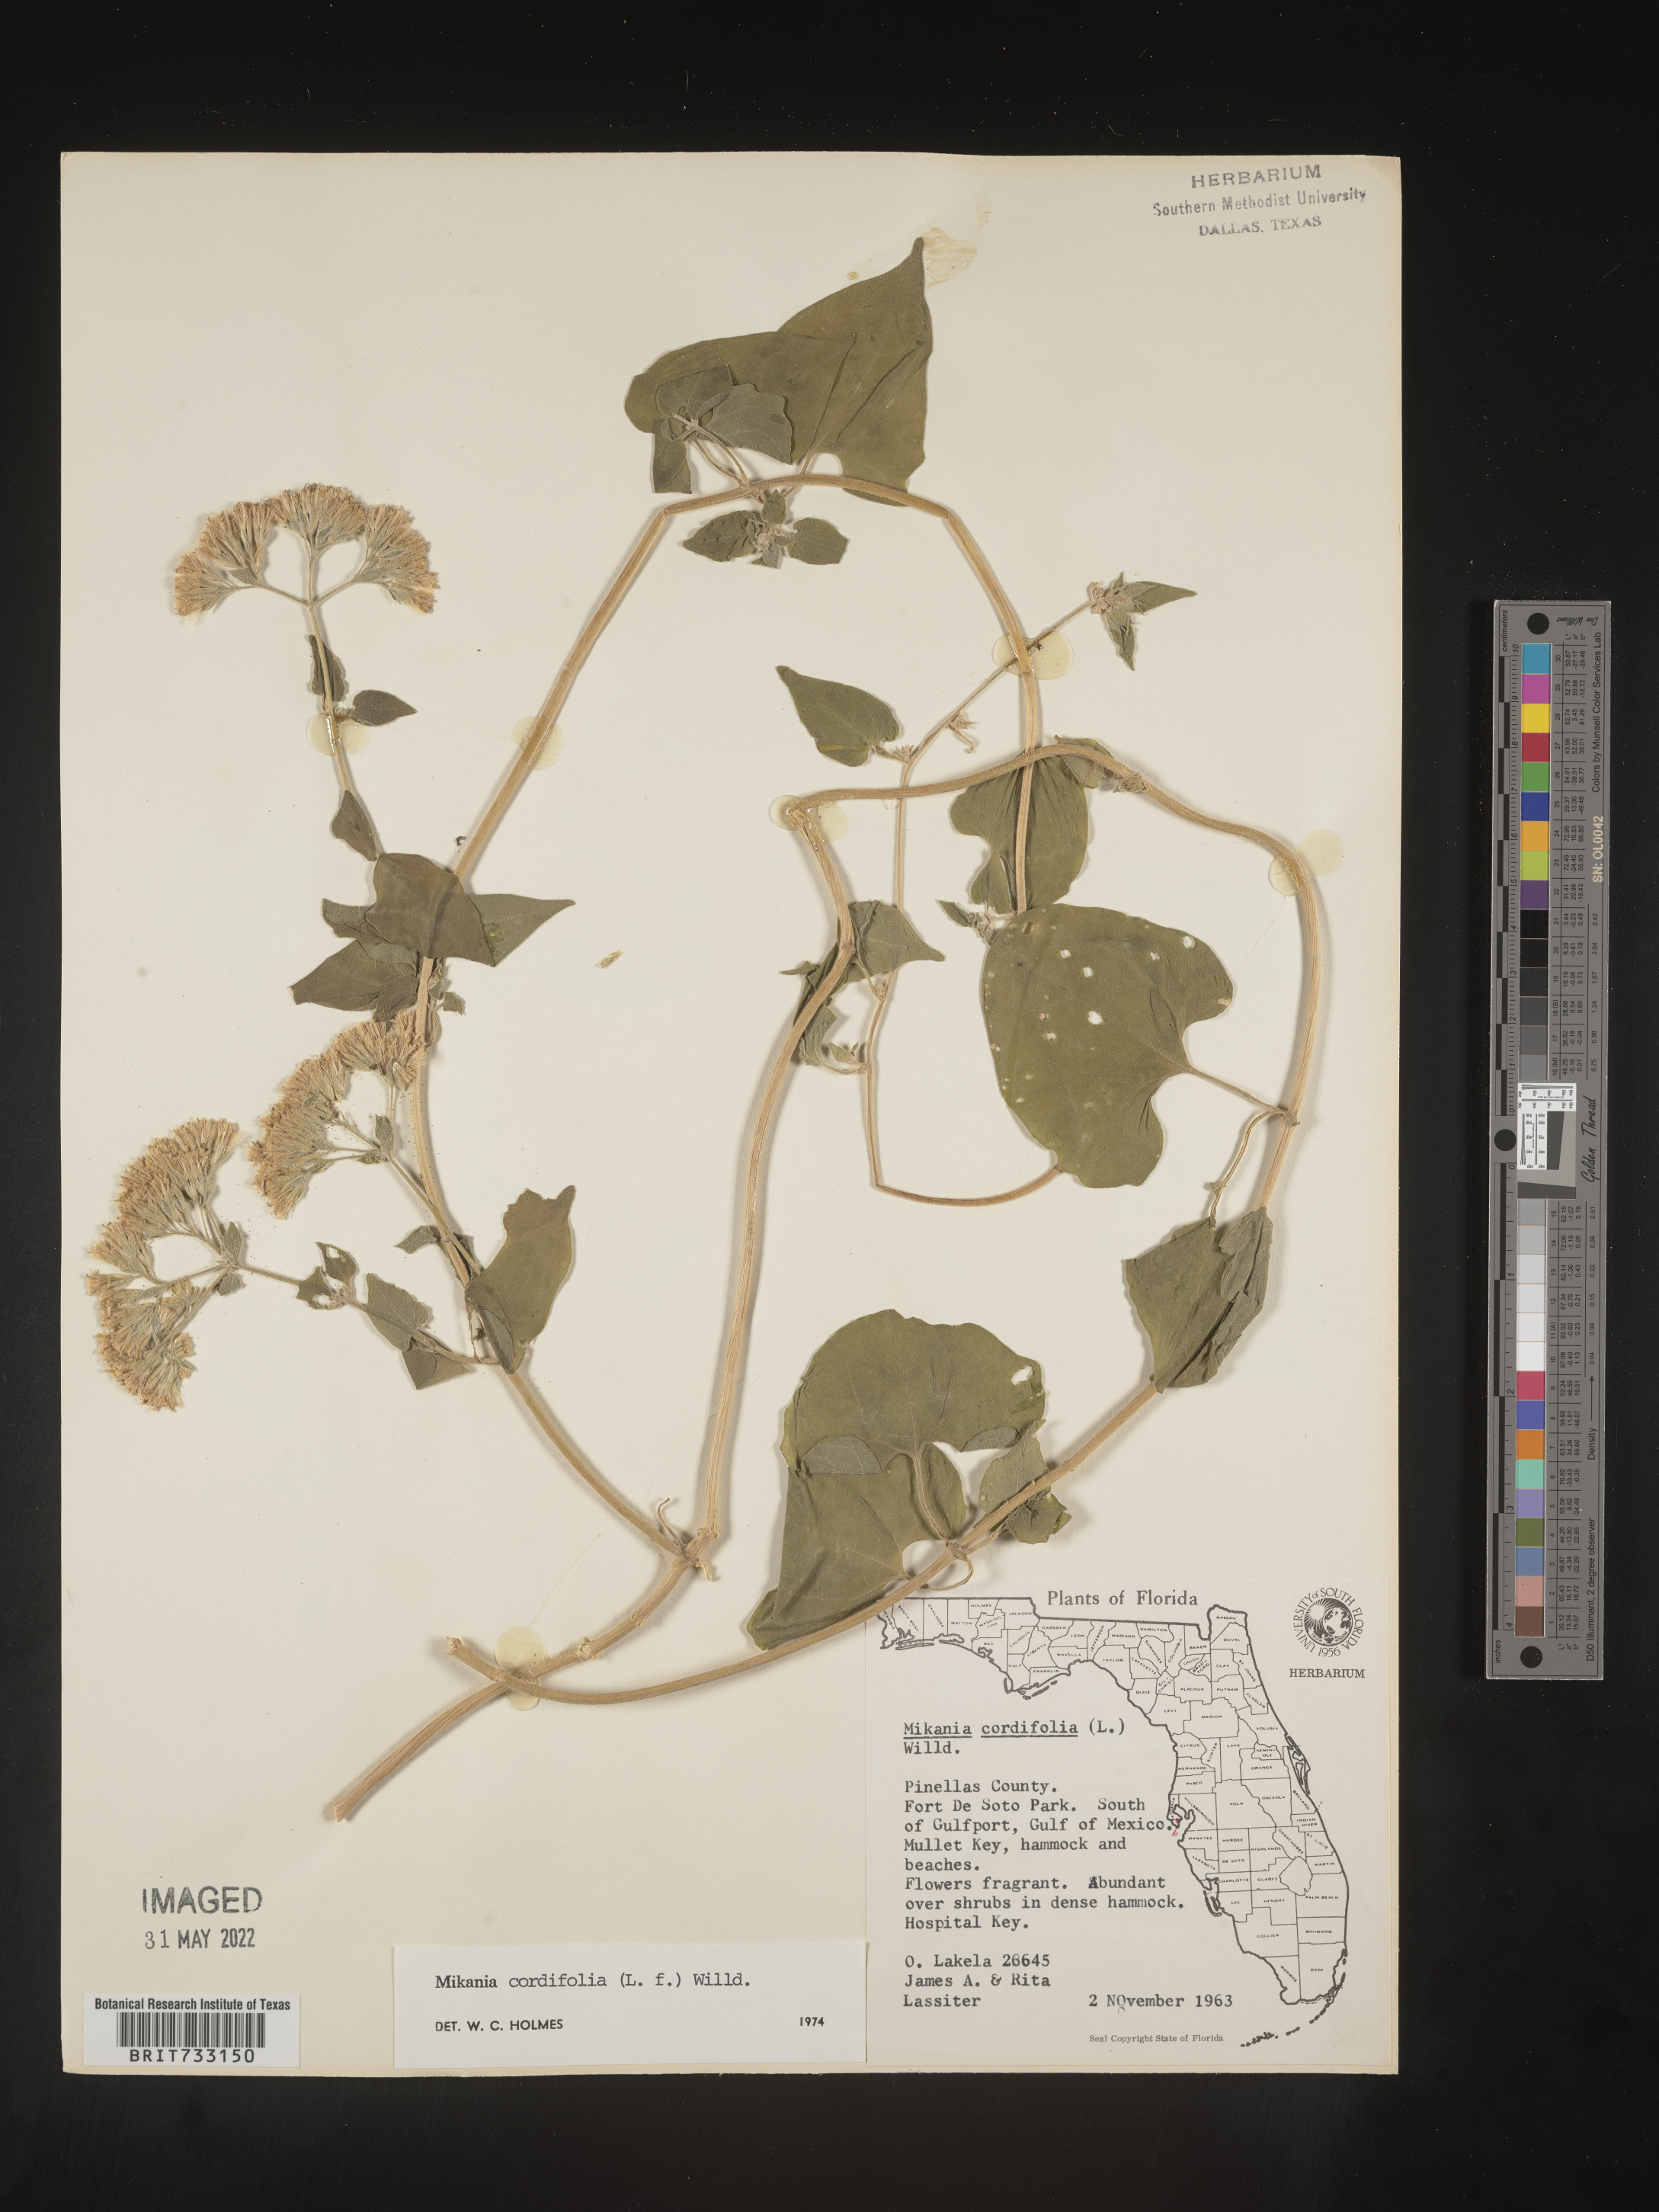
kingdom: Plantae
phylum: Tracheophyta
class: Magnoliopsida
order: Asterales
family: Asteraceae
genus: Mikania
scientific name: Mikania
